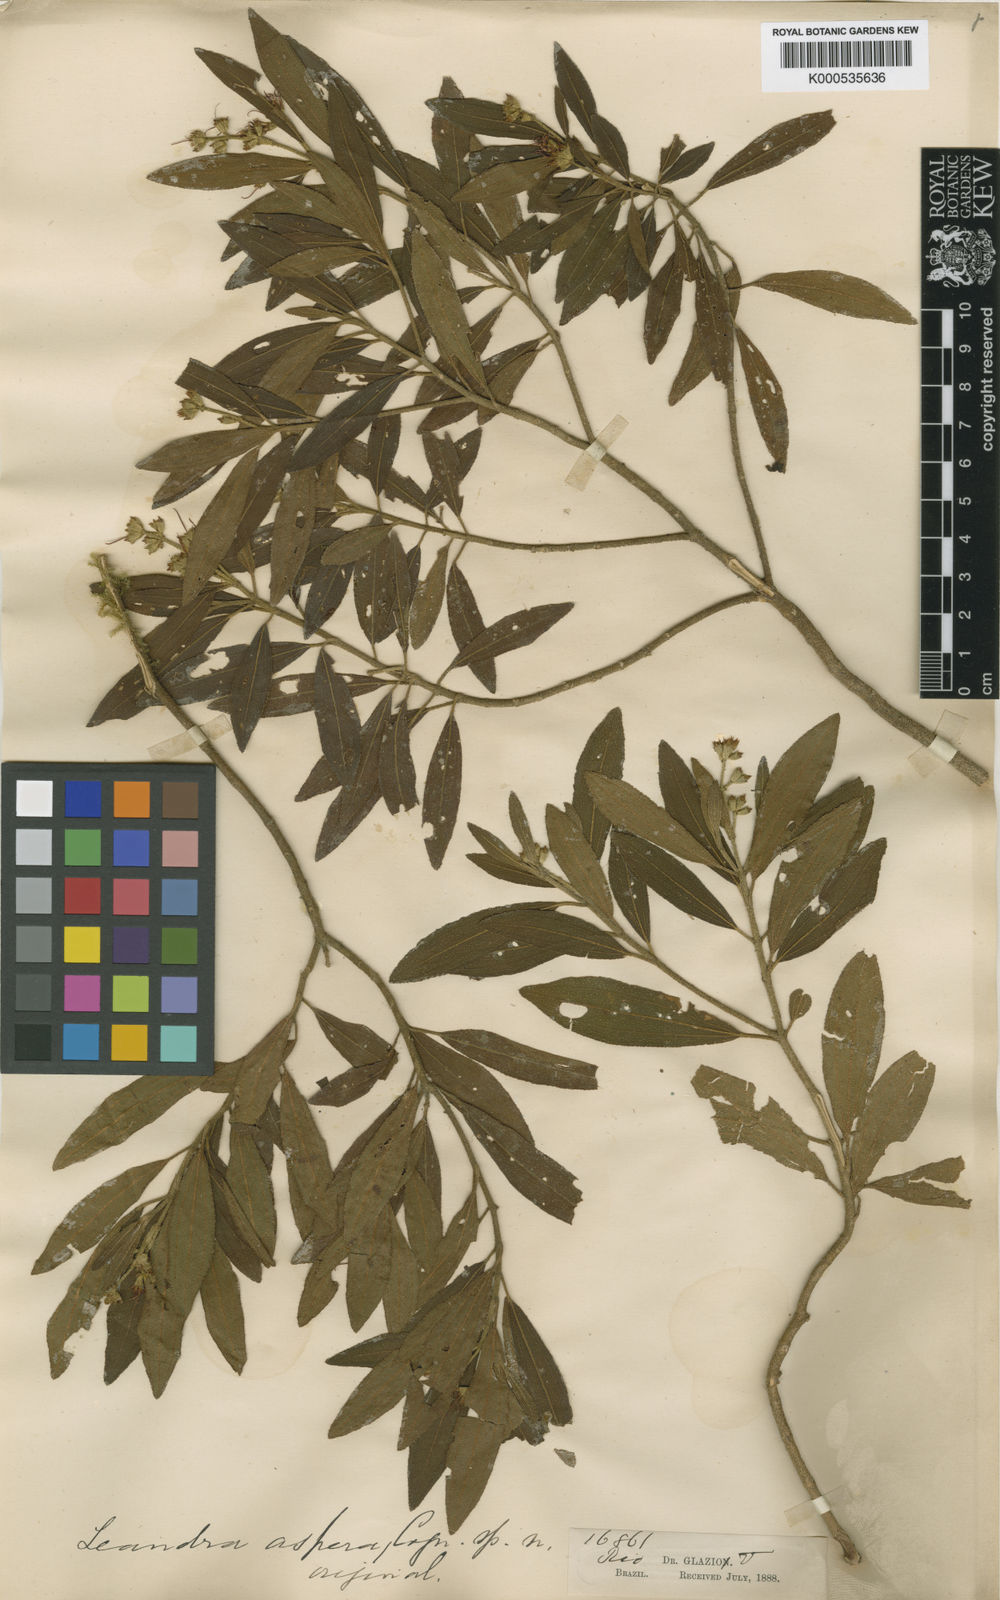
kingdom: Plantae
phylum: Tracheophyta
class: Magnoliopsida
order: Myrtales
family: Melastomataceae
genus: Miconia
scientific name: Miconia aspera
